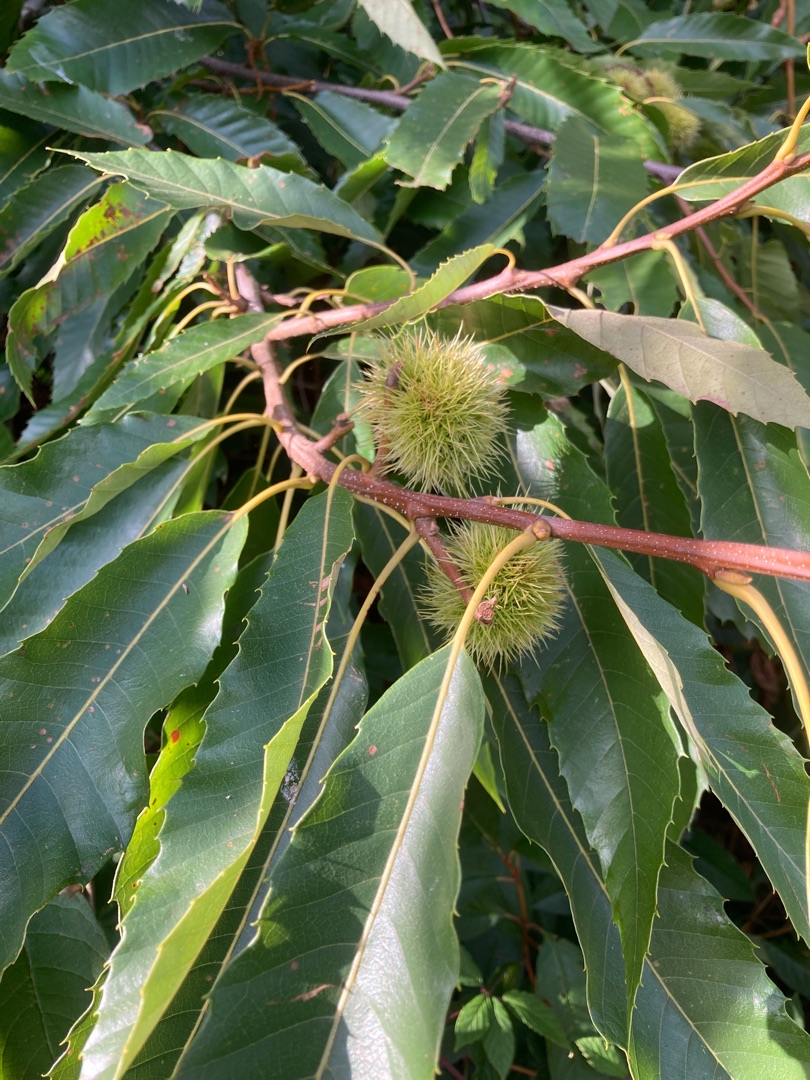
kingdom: Plantae
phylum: Tracheophyta
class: Magnoliopsida
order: Fagales
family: Fagaceae
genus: Castanea
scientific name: Castanea sativa
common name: Ægte kastanie
